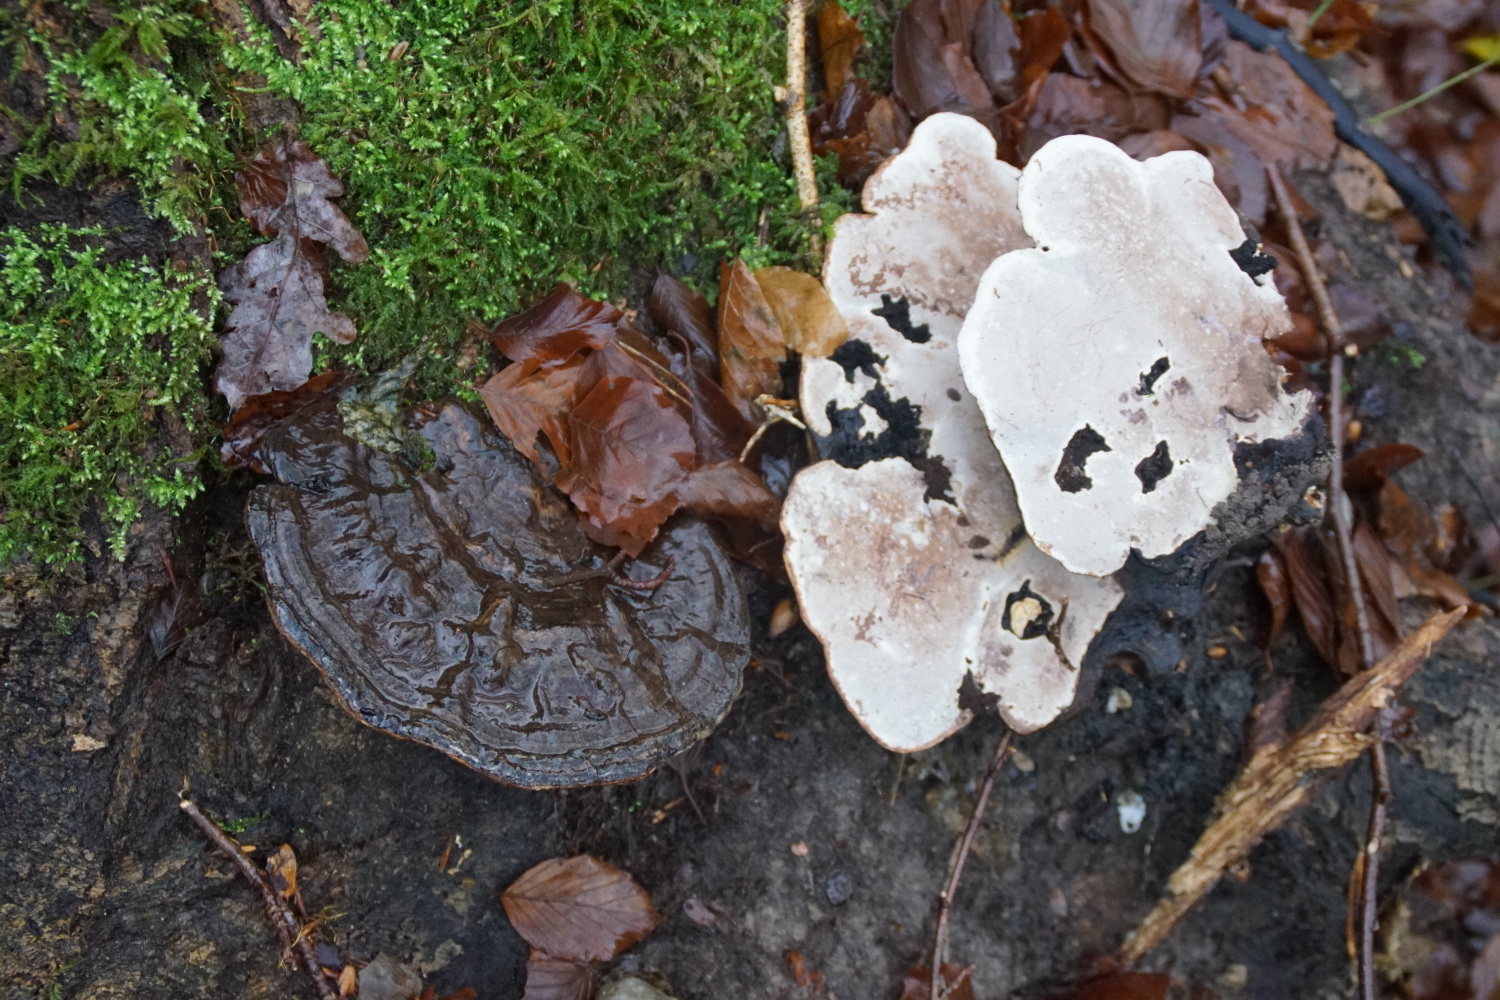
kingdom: Fungi
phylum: Basidiomycota
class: Agaricomycetes
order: Polyporales
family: Polyporaceae
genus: Ganoderma
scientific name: Ganoderma applanatum
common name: flad lakporesvamp
